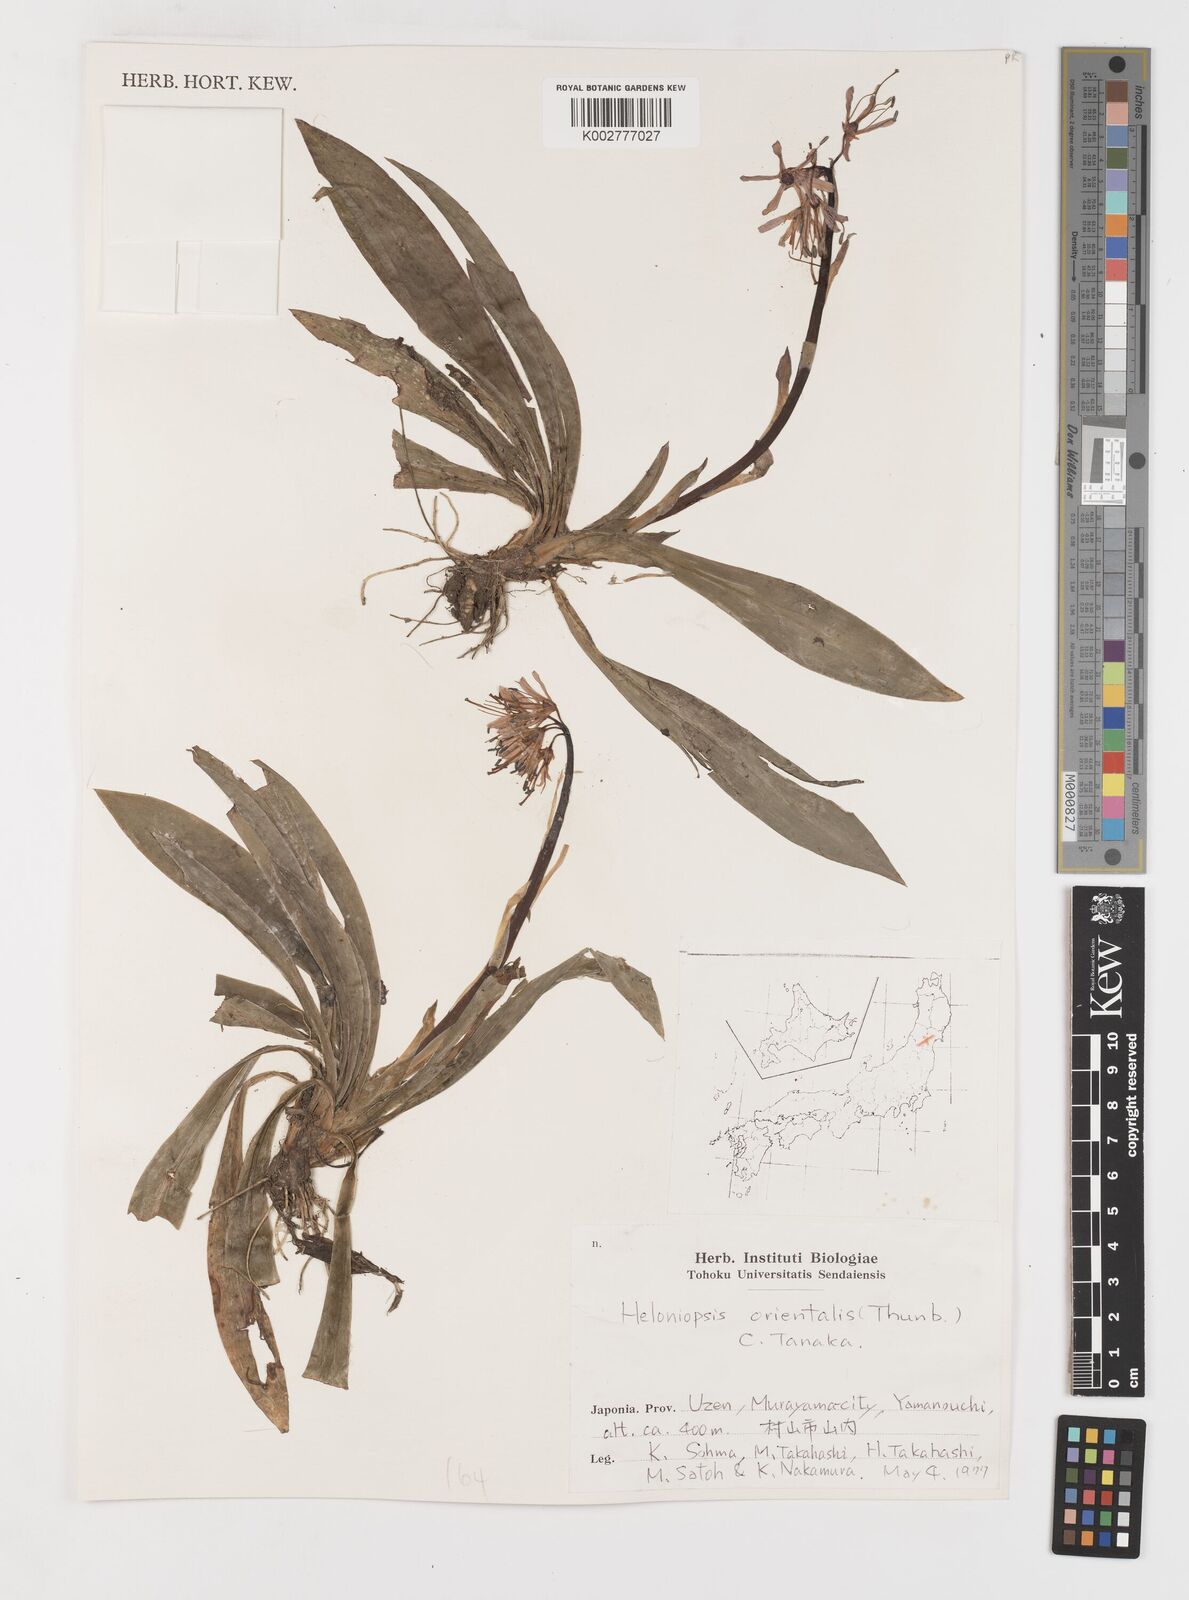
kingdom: Plantae
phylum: Tracheophyta
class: Liliopsida
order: Liliales
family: Melanthiaceae
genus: Helonias
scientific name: Helonias orientalis
